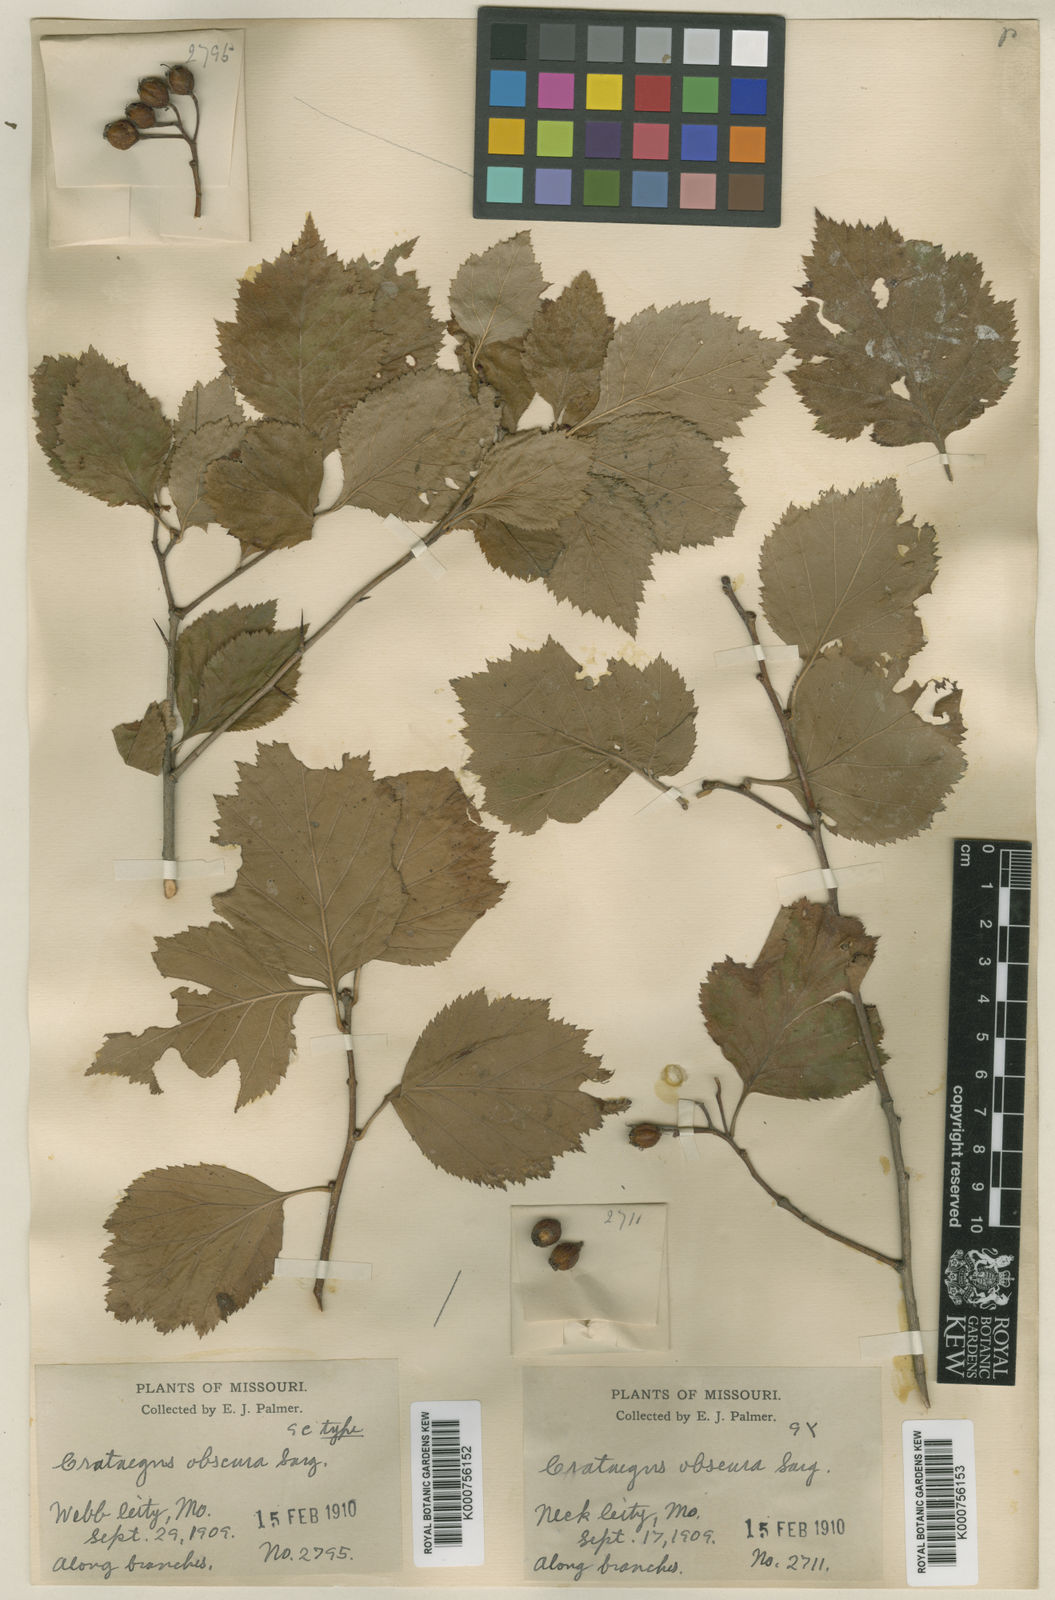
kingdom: Plantae
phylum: Tracheophyta
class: Magnoliopsida
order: Rosales
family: Rosaceae
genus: Crataegus
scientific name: Crataegus obscura
